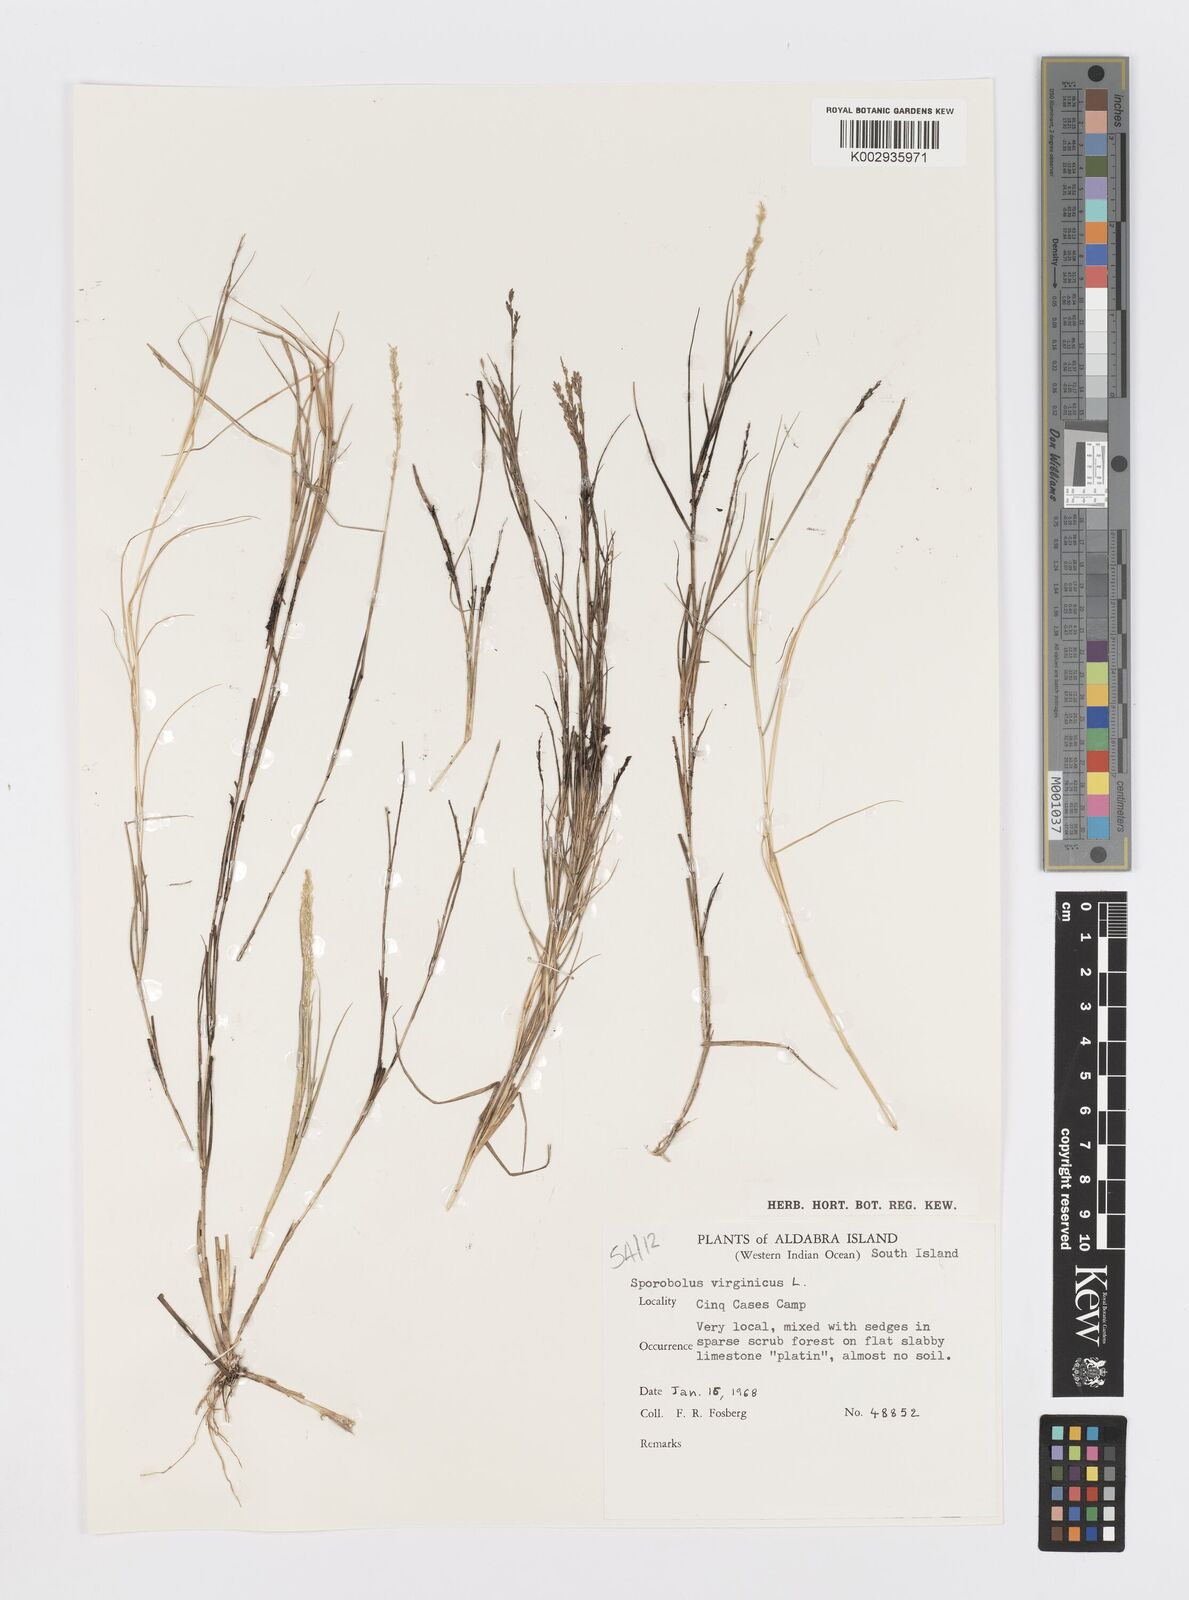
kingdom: Plantae
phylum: Tracheophyta
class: Liliopsida
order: Poales
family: Poaceae
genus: Sporobolus
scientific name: Sporobolus virginicus
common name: Beach dropseed
